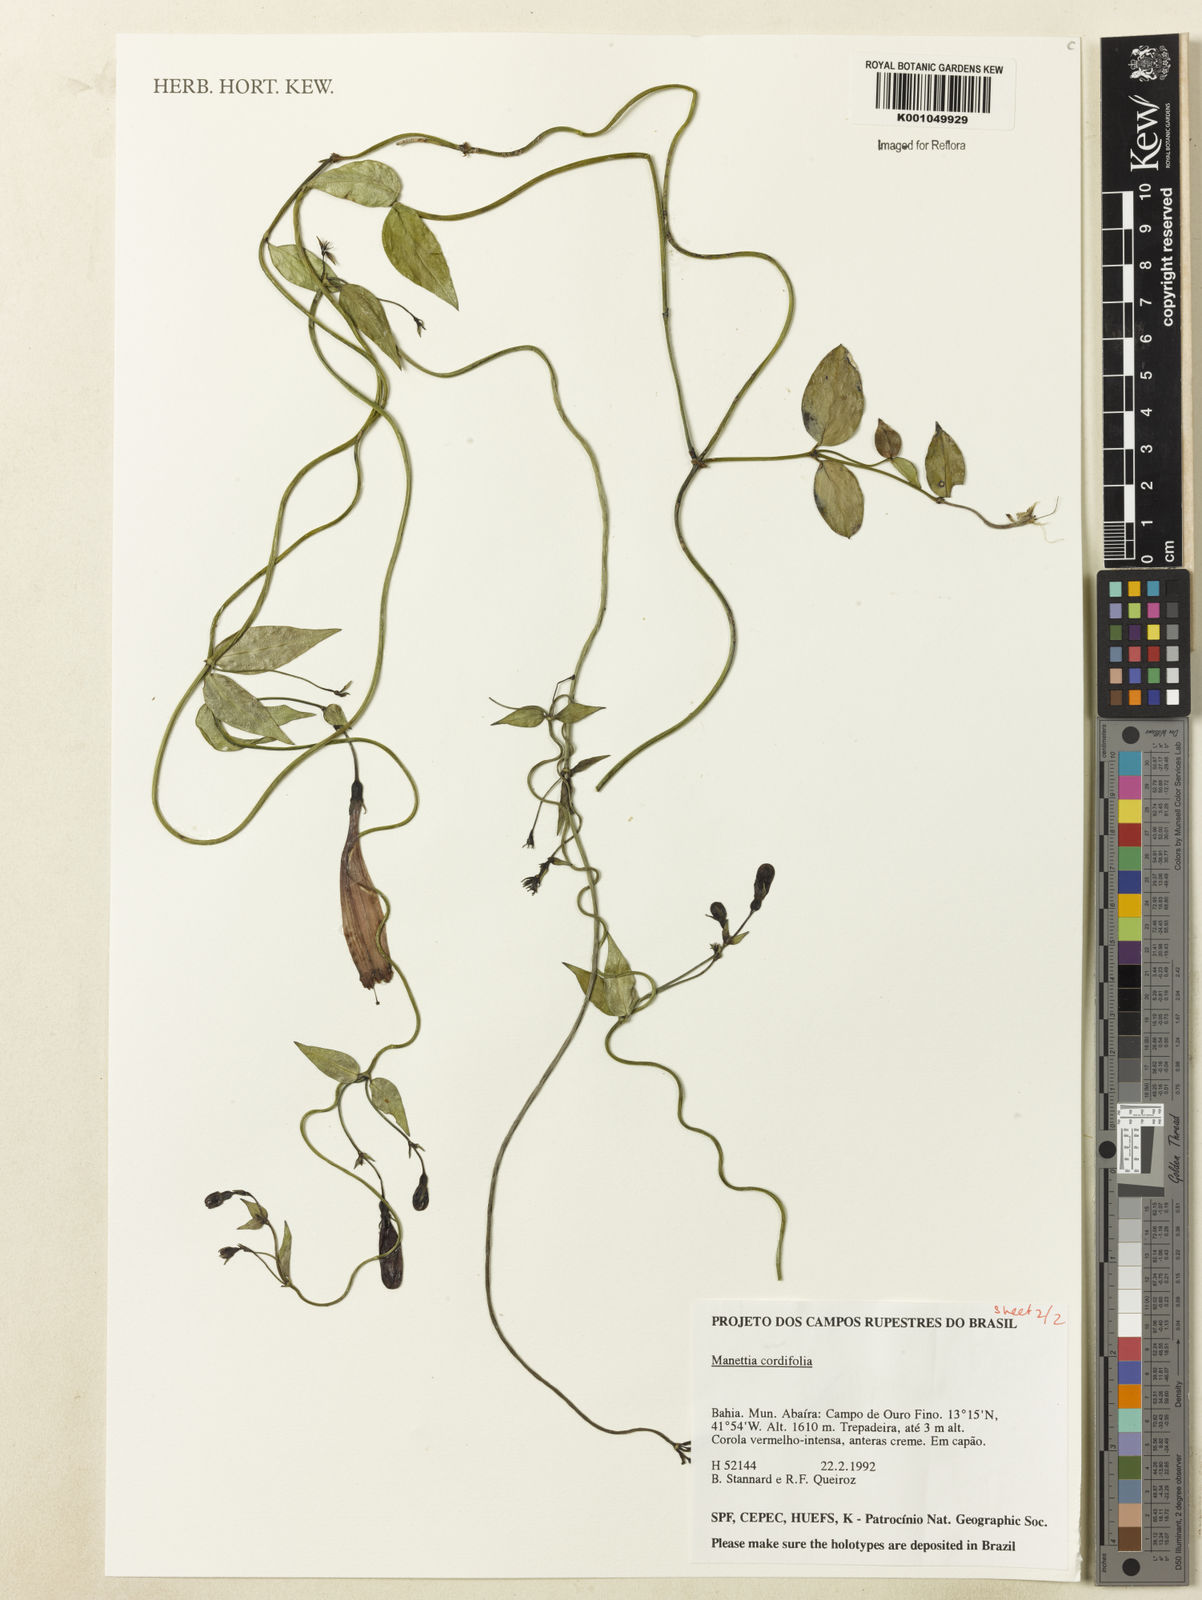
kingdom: Plantae
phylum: Tracheophyta
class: Magnoliopsida
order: Gentianales
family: Rubiaceae
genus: Manettia
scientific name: Manettia cordifolia
